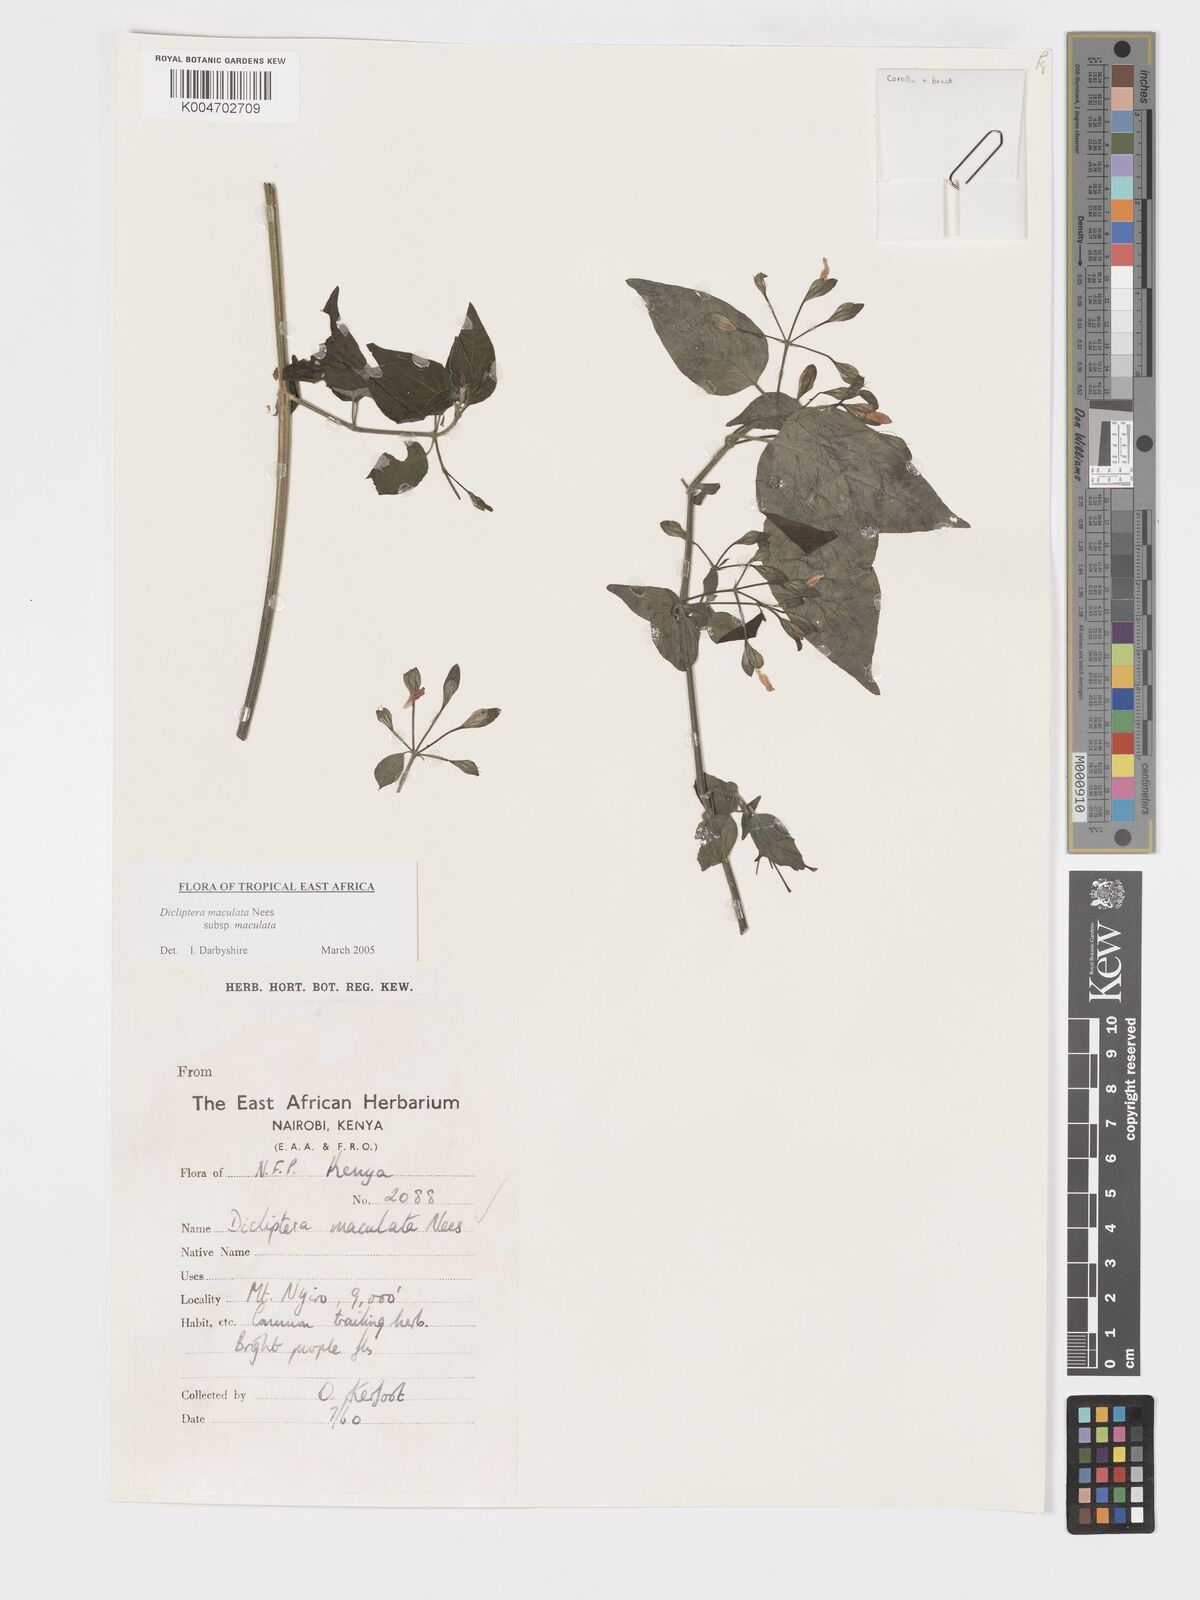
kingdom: Plantae
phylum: Tracheophyta
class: Magnoliopsida
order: Lamiales
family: Acanthaceae
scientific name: Acanthaceae
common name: Acanthaceae
